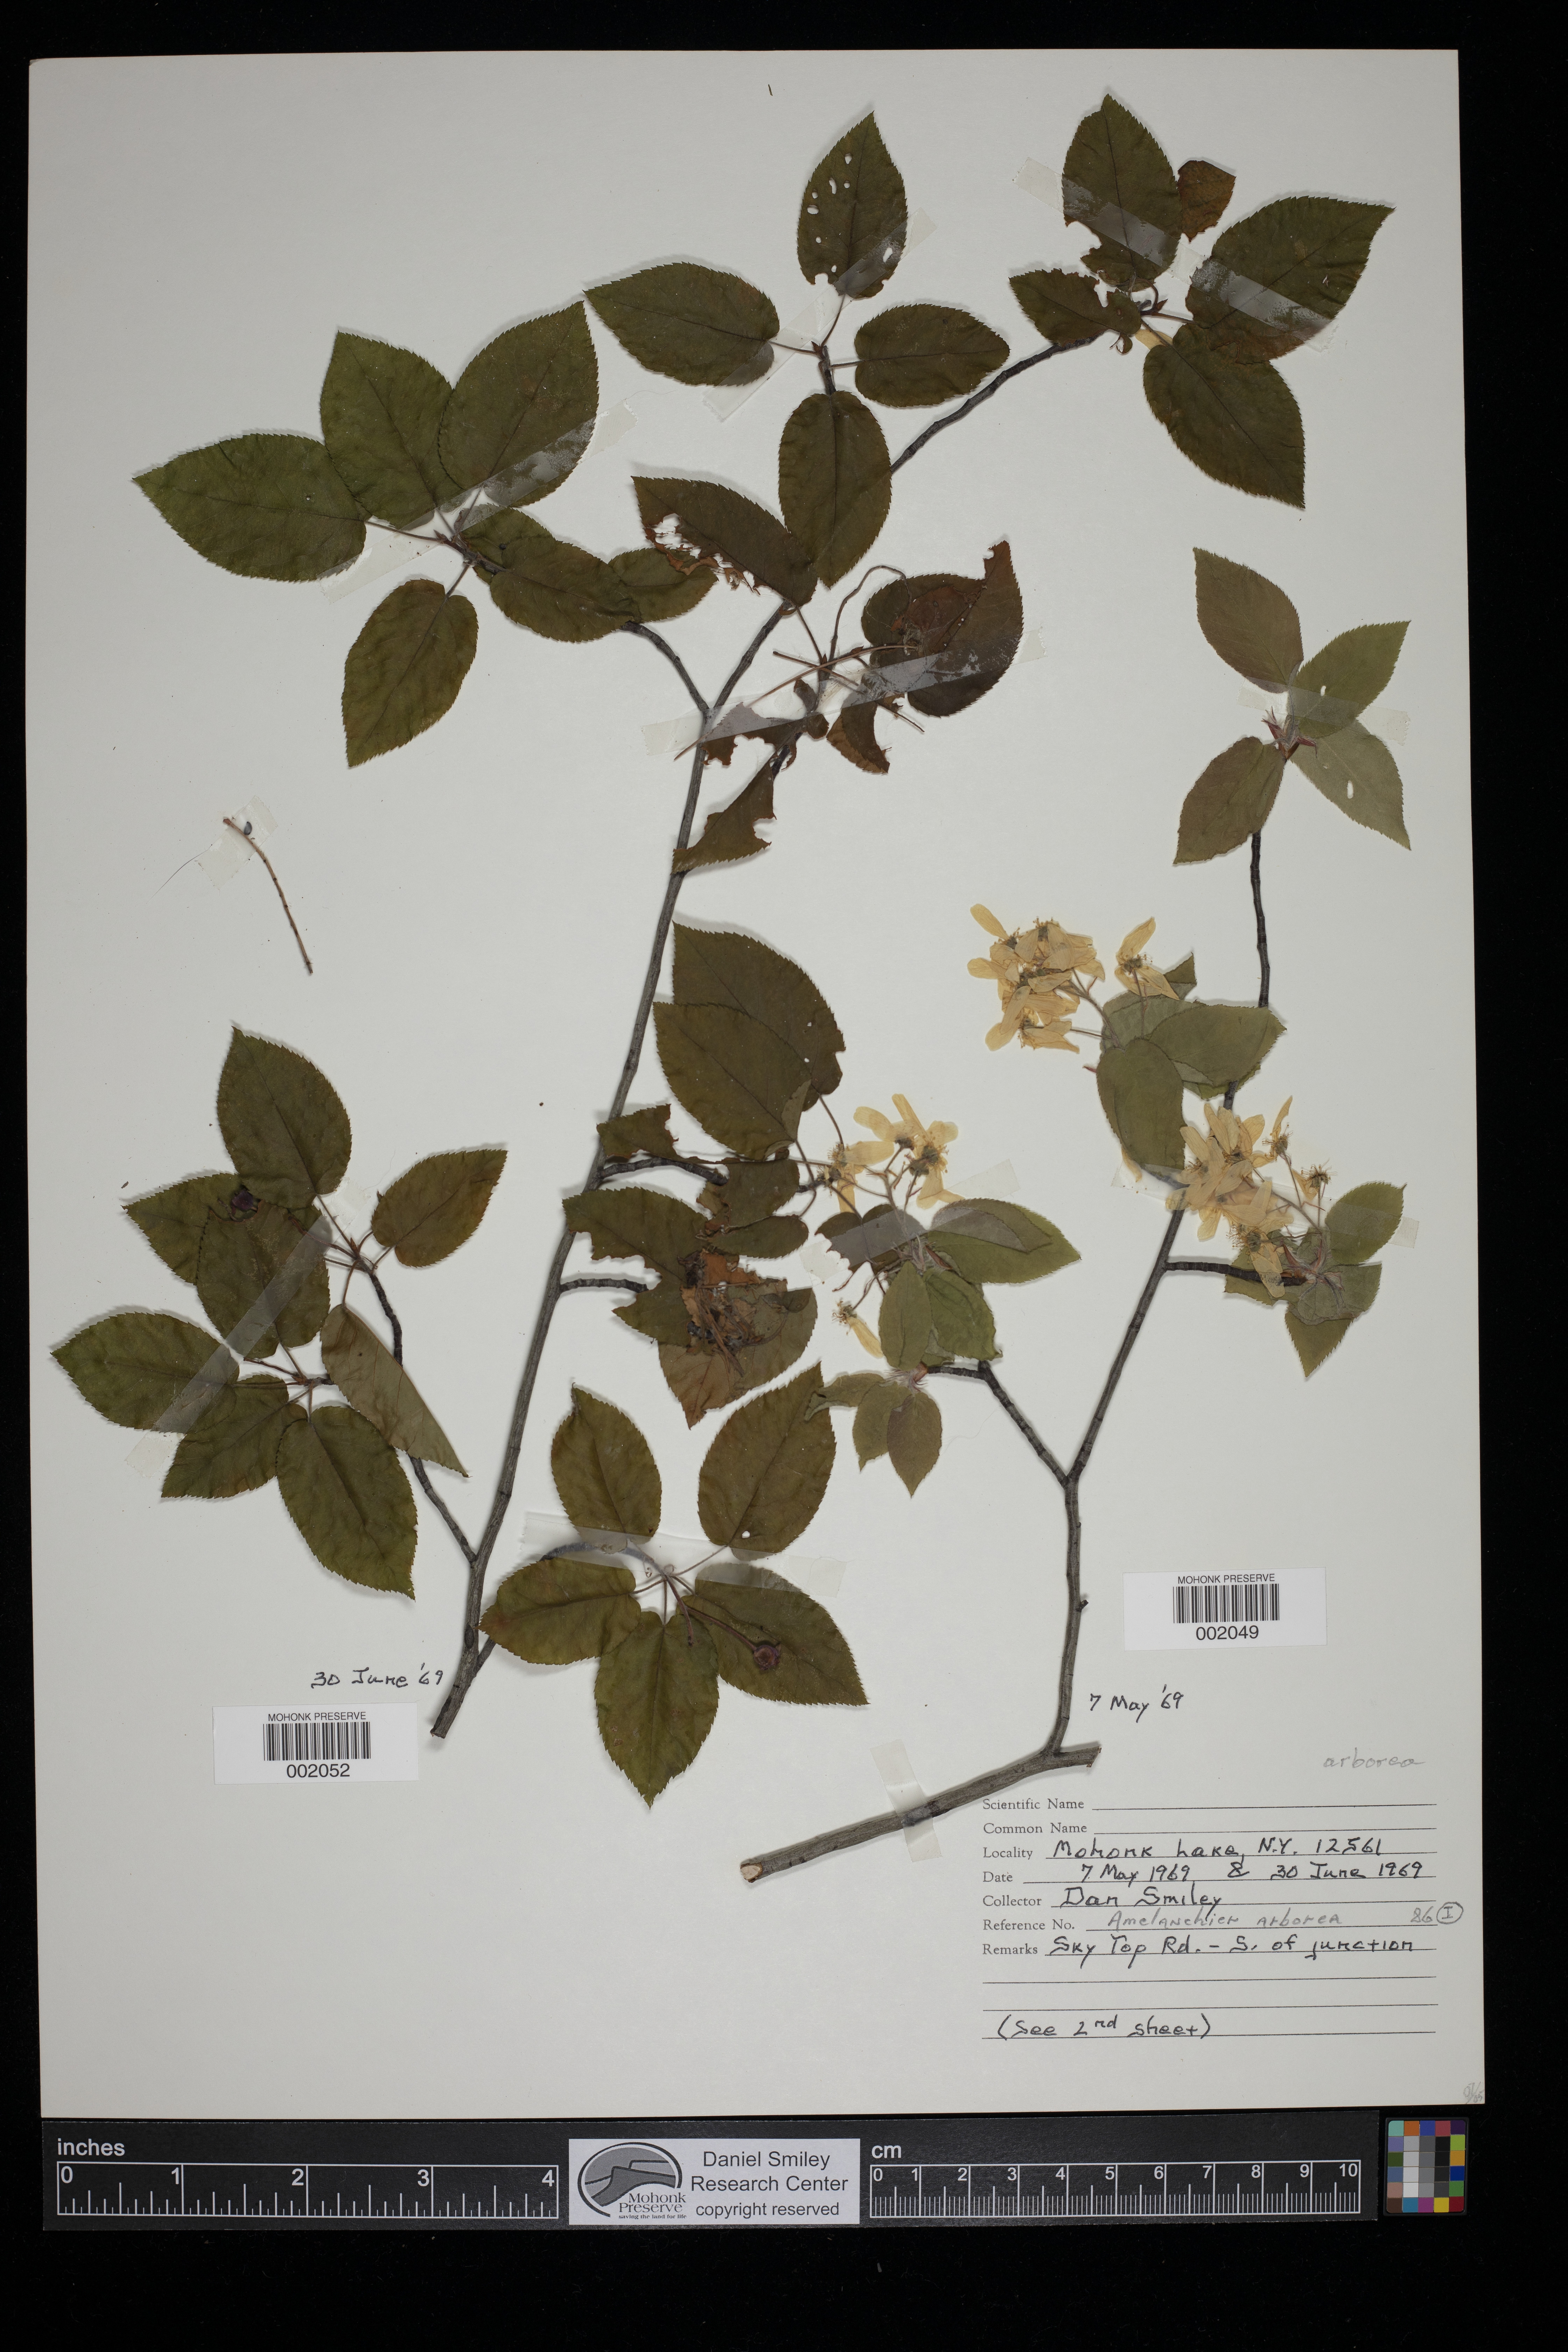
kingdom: Plantae
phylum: Tracheophyta
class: Magnoliopsida
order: Rosales
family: Rosaceae
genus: Amelanchier
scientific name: Amelanchier arborea
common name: Downy serviceberry
